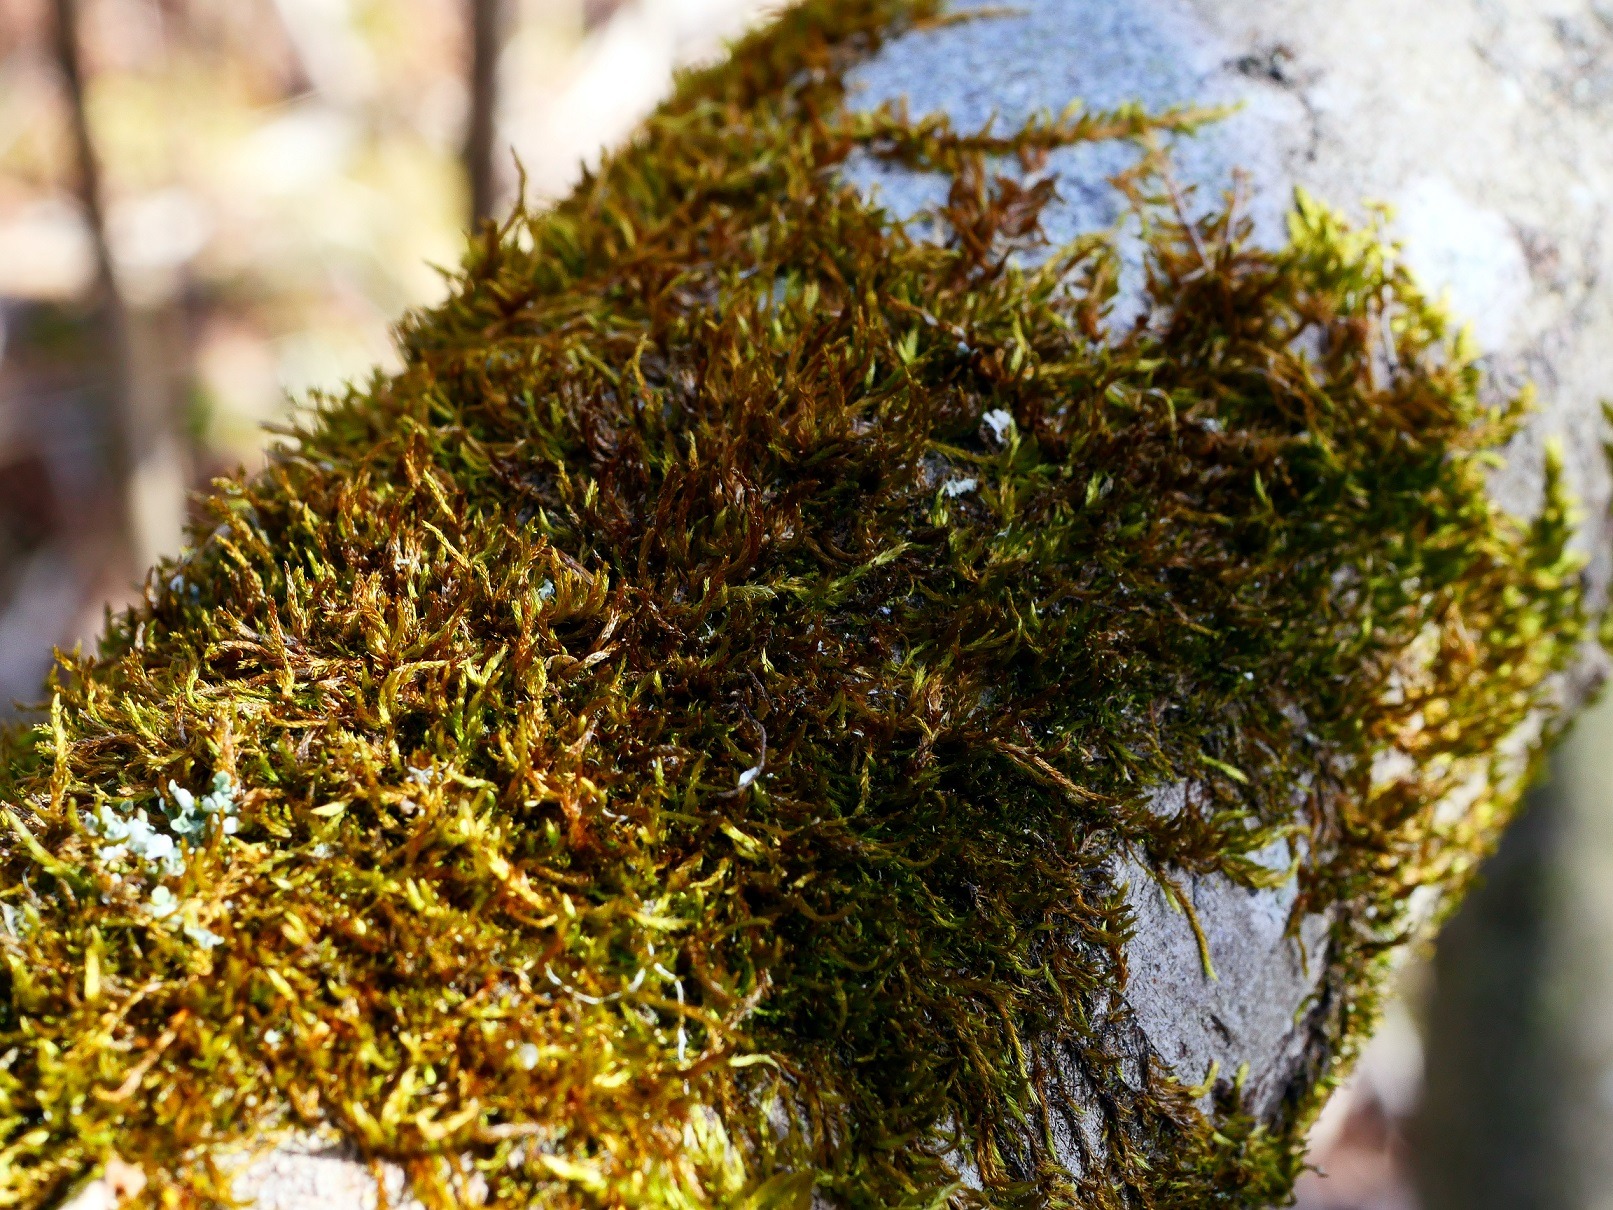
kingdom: Plantae
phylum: Bryophyta
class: Bryopsida
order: Hypnales
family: Pylaisiadelphaceae
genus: Platygyrium
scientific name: Platygyrium repens
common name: Mørk yngleknop
